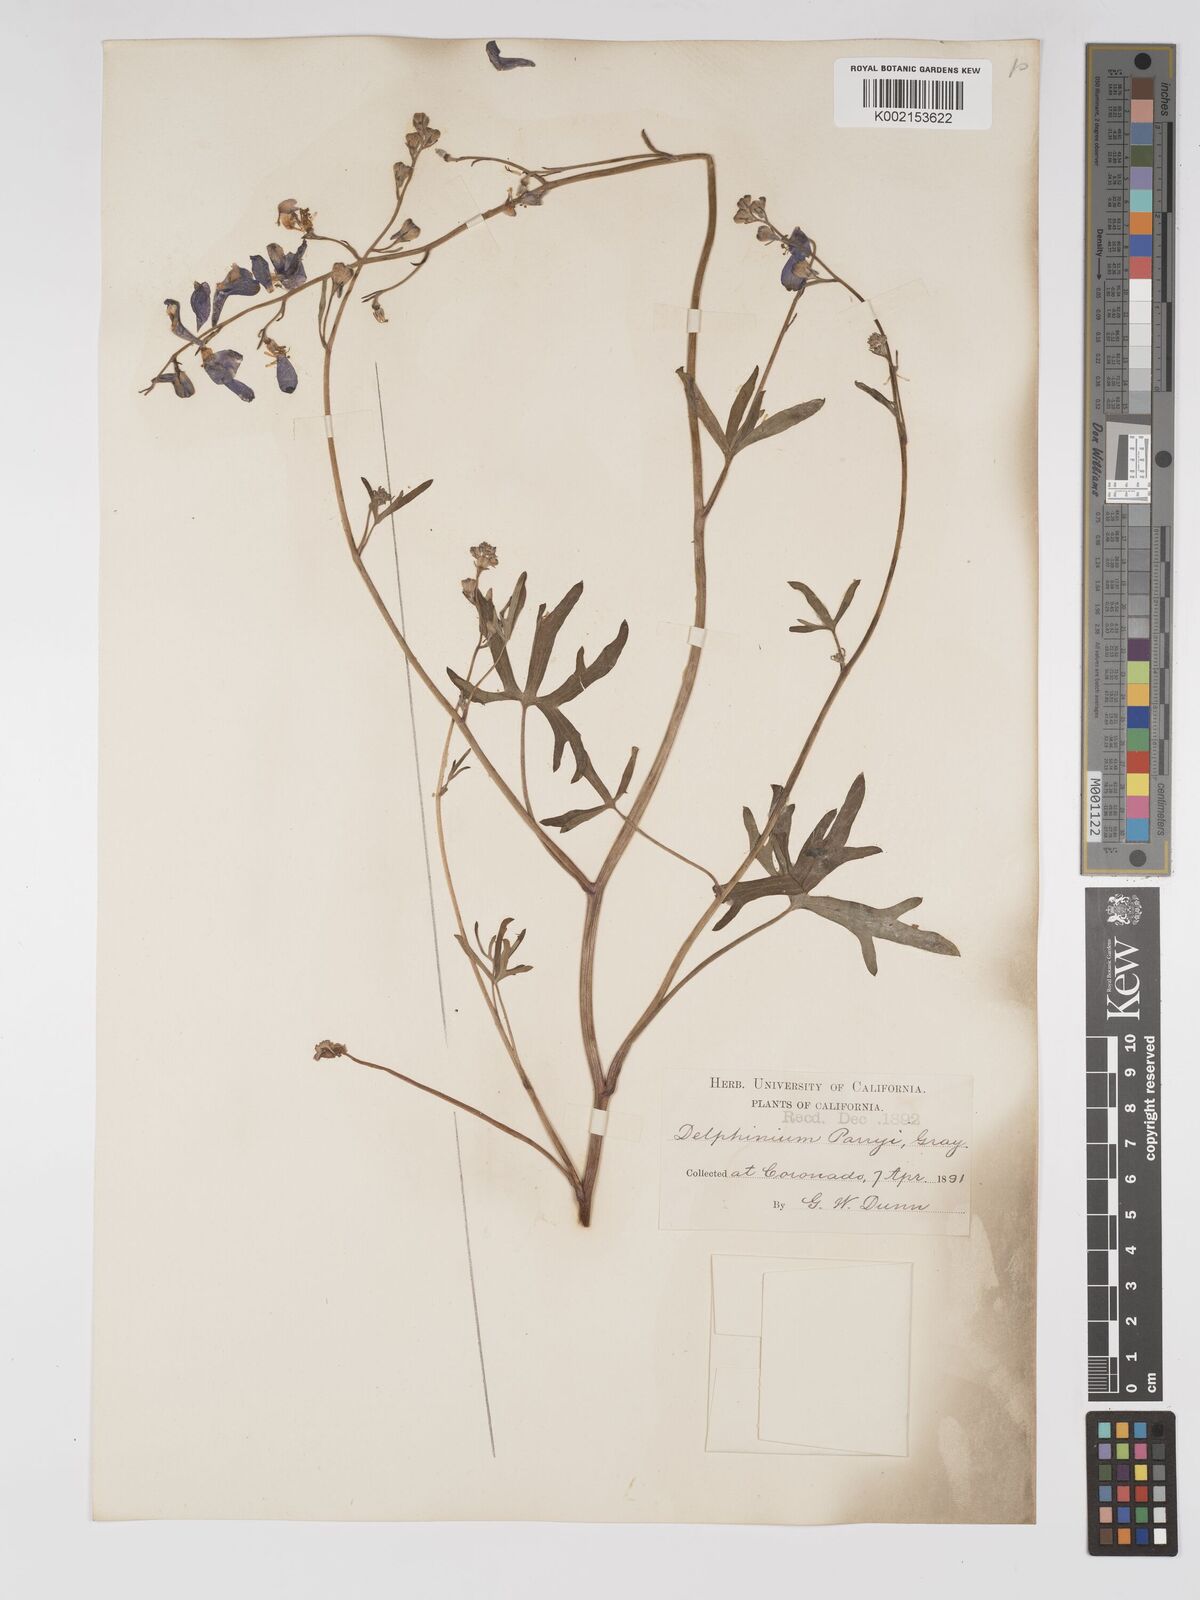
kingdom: Plantae
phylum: Tracheophyta
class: Magnoliopsida
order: Ranunculales
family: Ranunculaceae
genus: Delphinium
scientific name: Delphinium parryi
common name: Parry's larkspur
